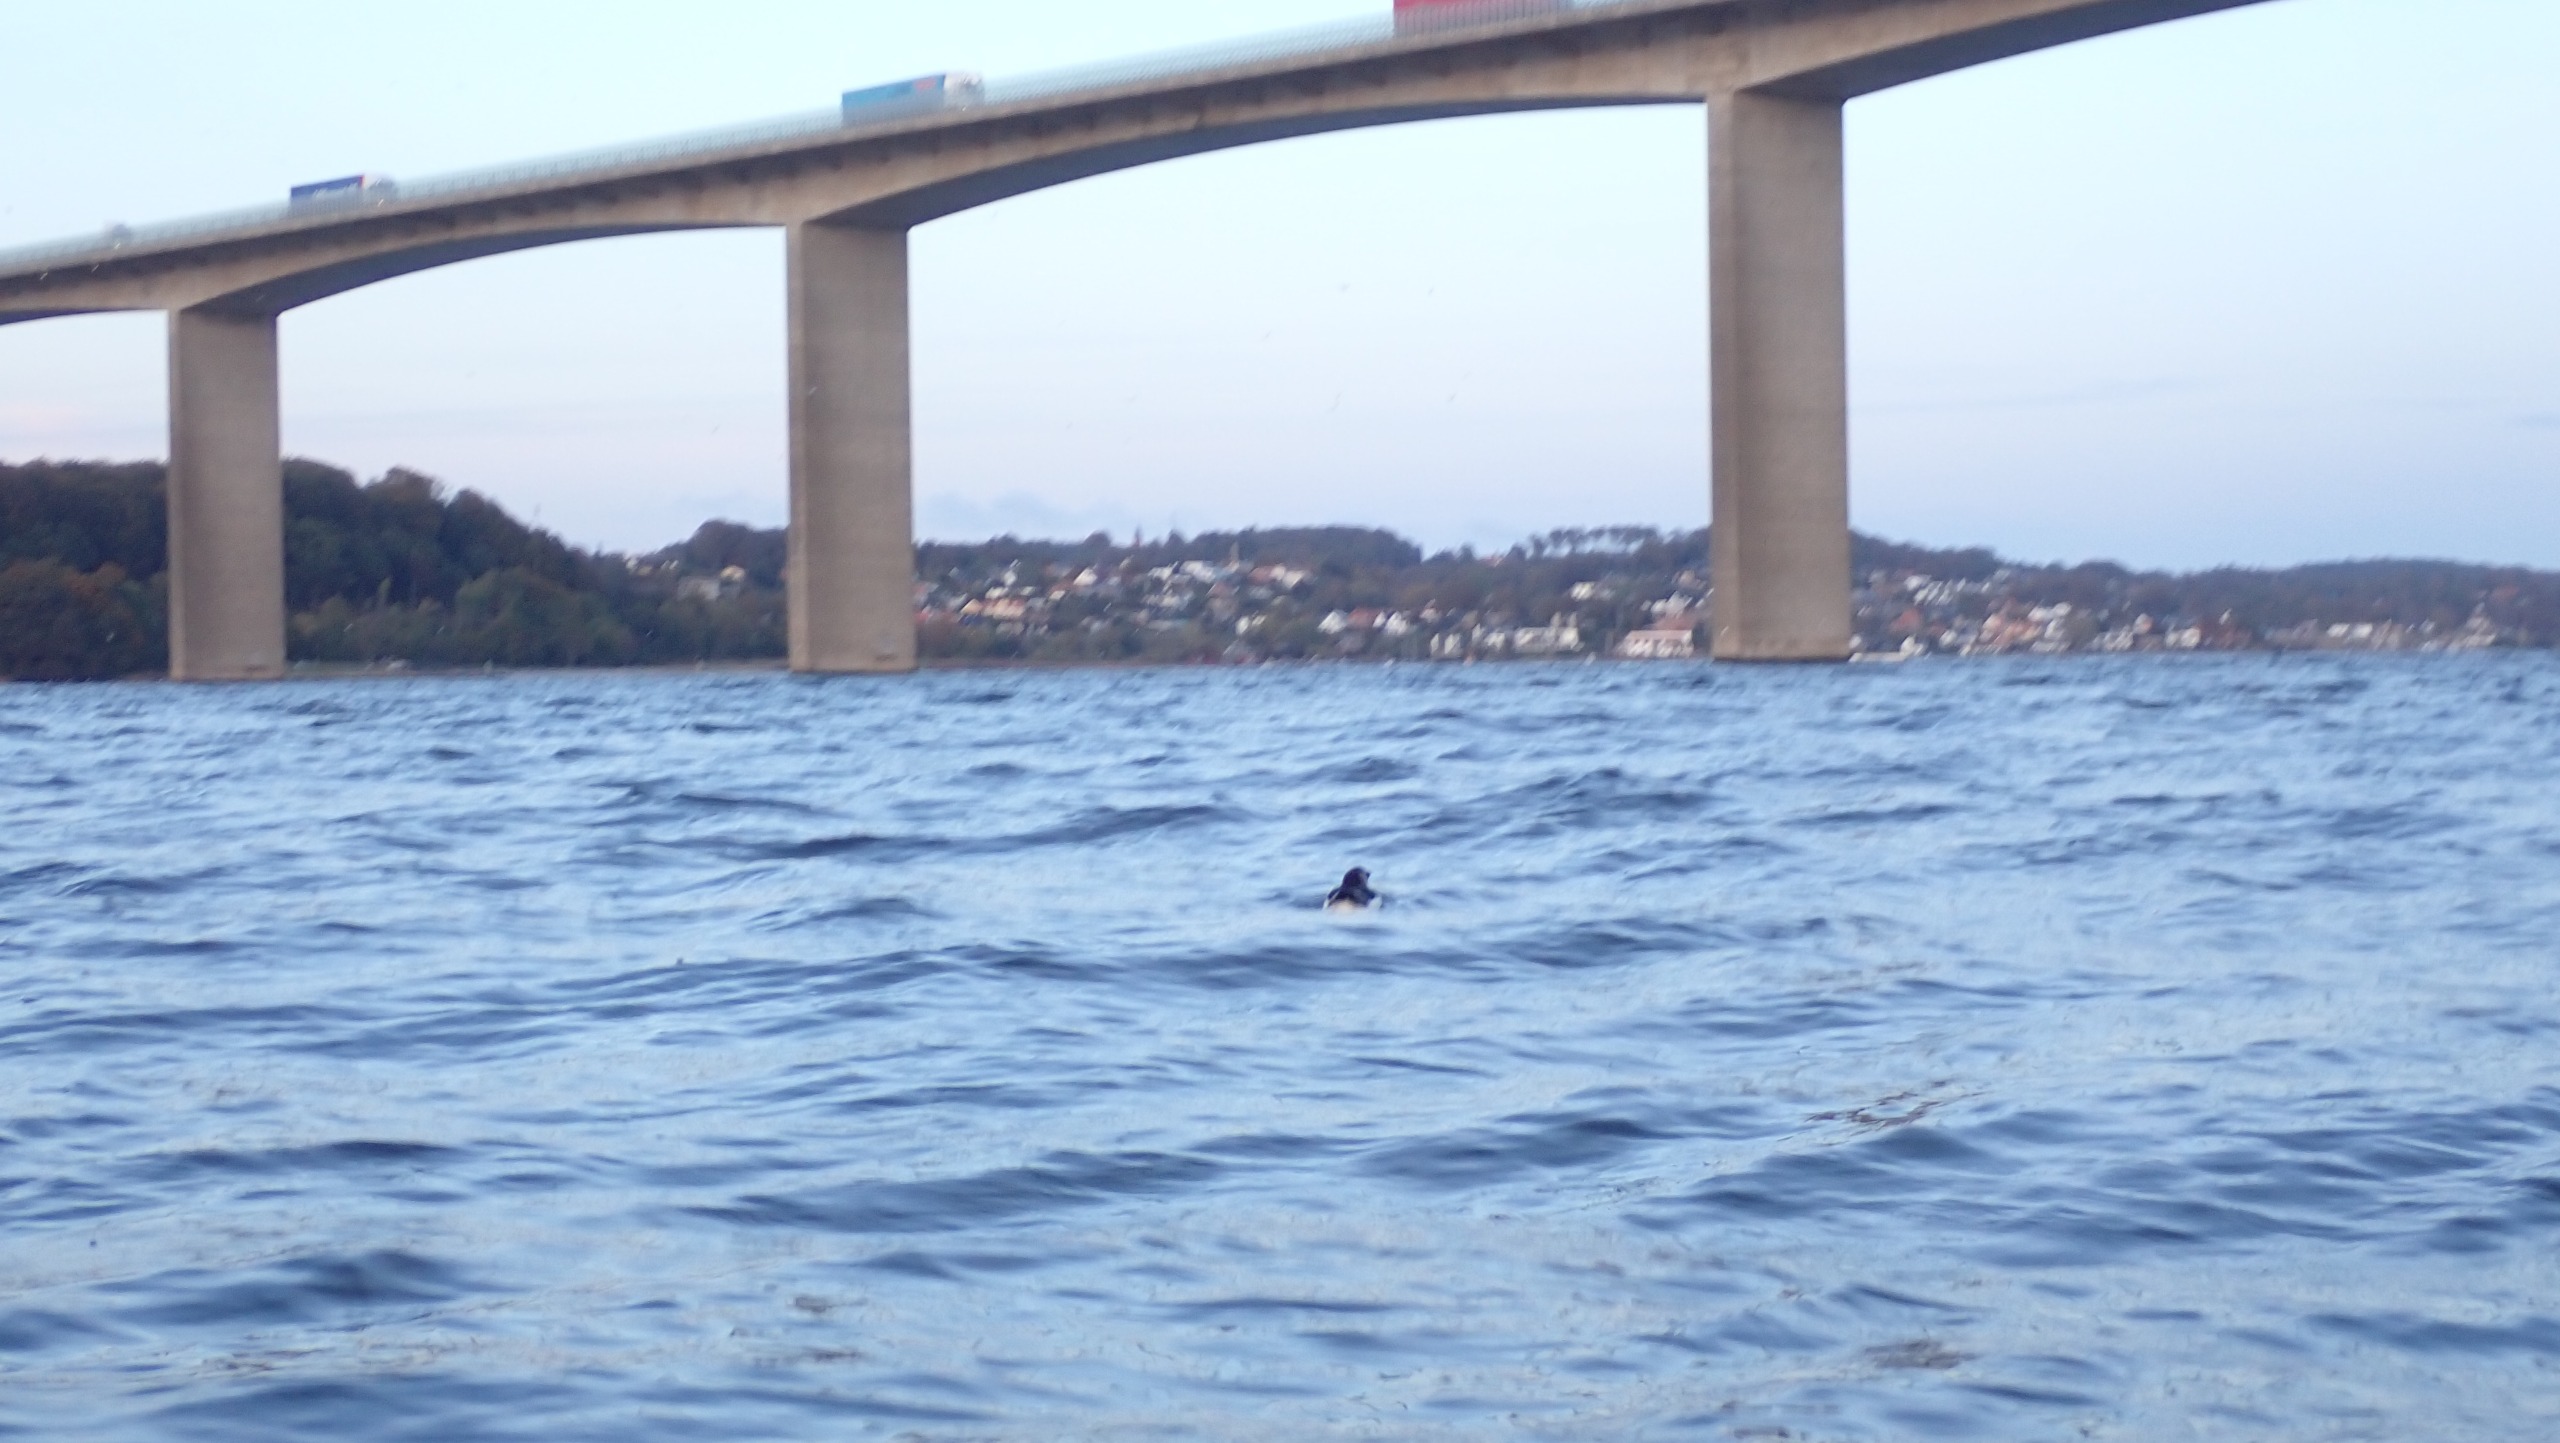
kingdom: Animalia
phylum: Chordata
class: Aves
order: Charadriiformes
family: Alcidae
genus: Alca
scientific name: Alca torda
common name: Alk
